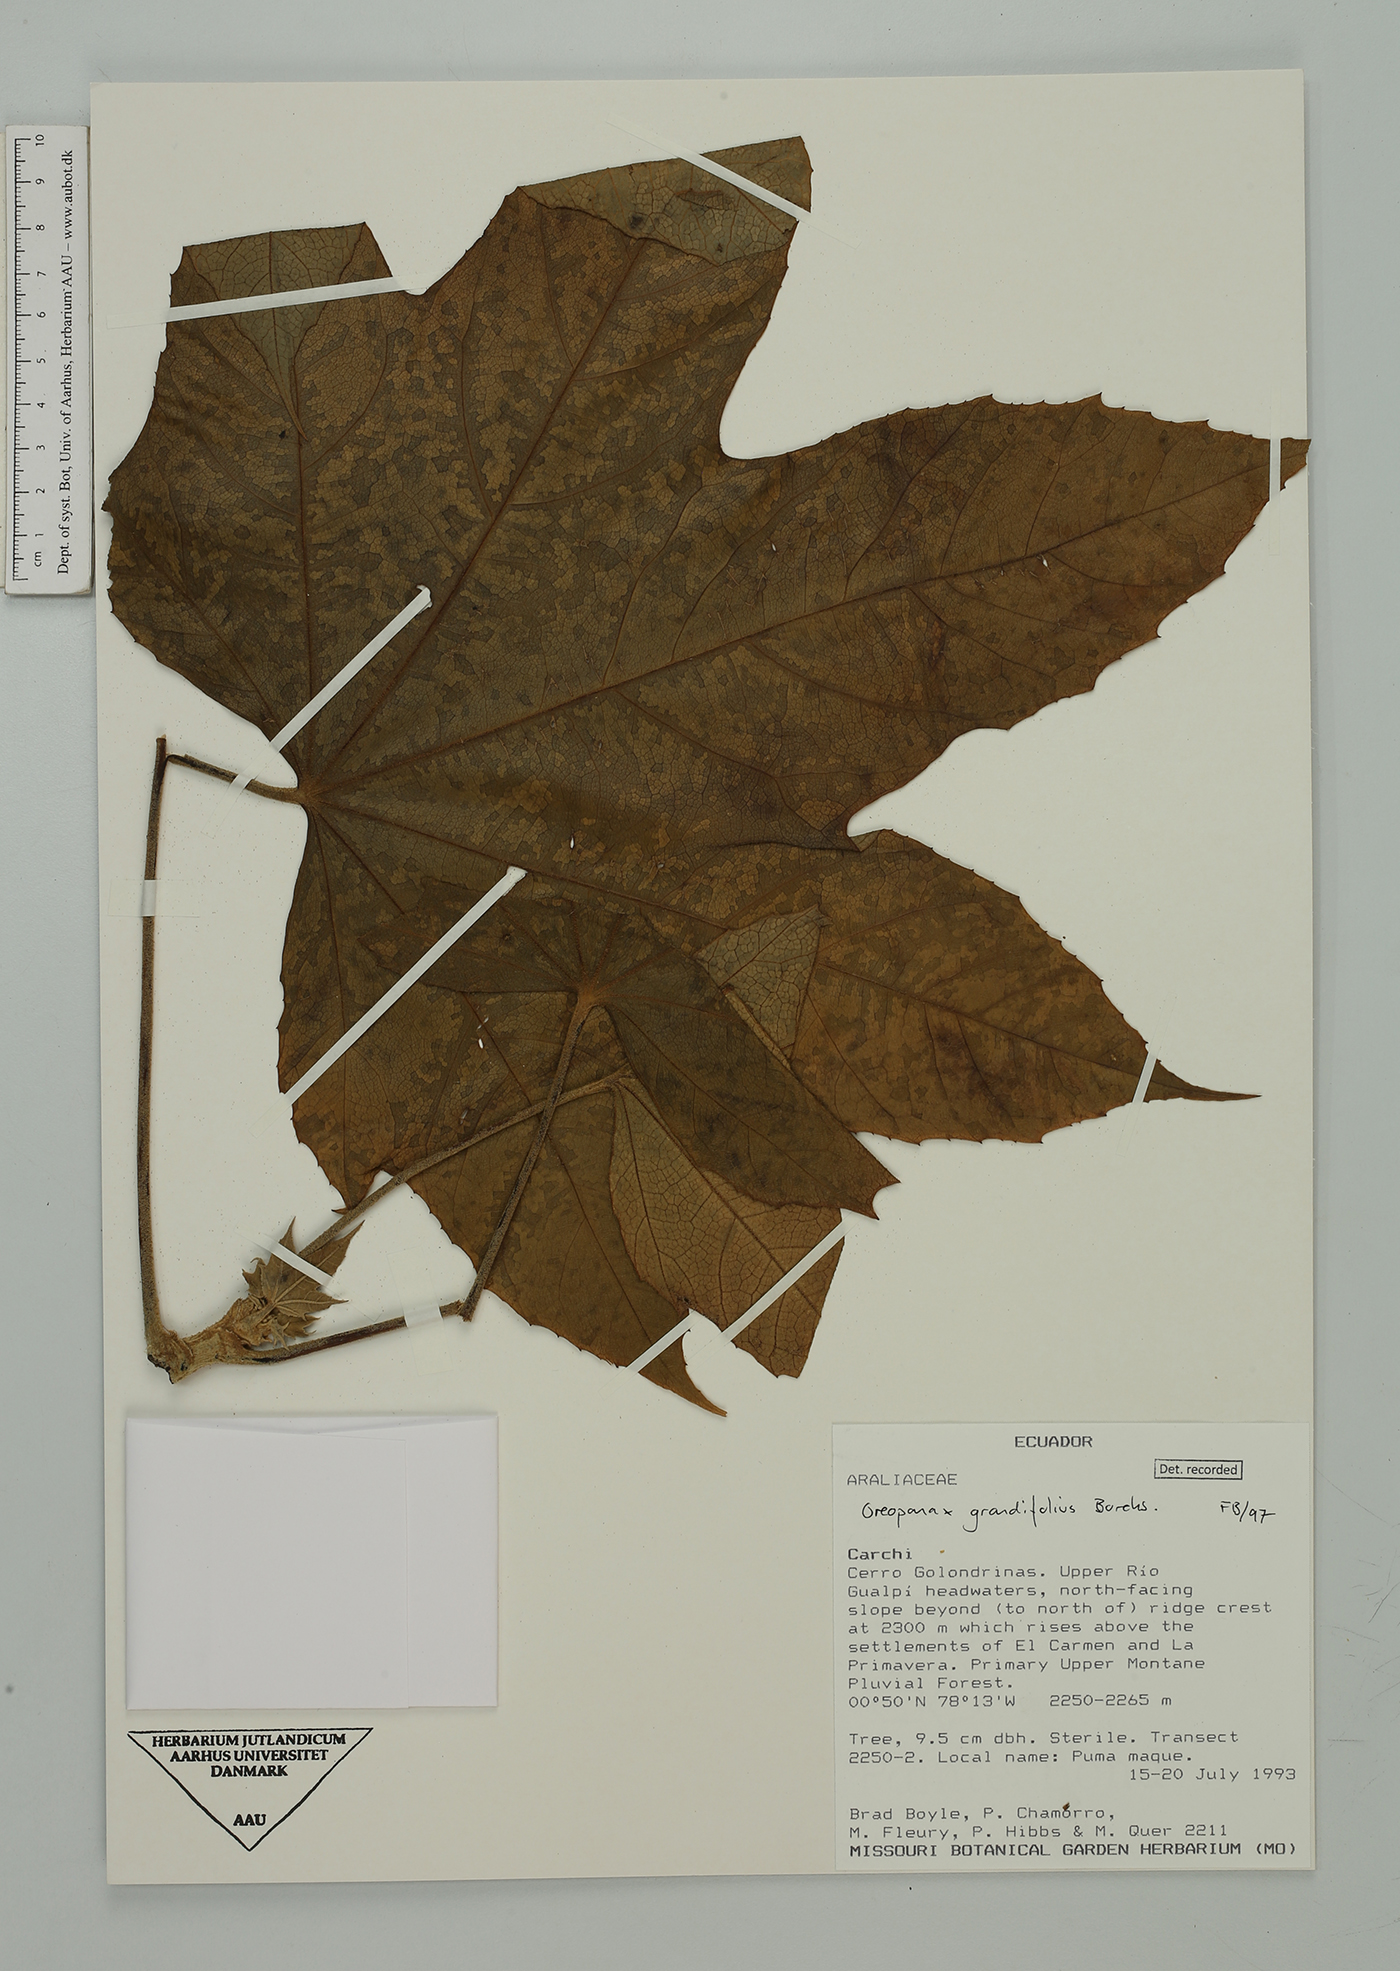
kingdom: Plantae
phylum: Tracheophyta
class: Magnoliopsida
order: Apiales
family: Araliaceae
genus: Oreopanax
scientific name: Oreopanax grandifolius
